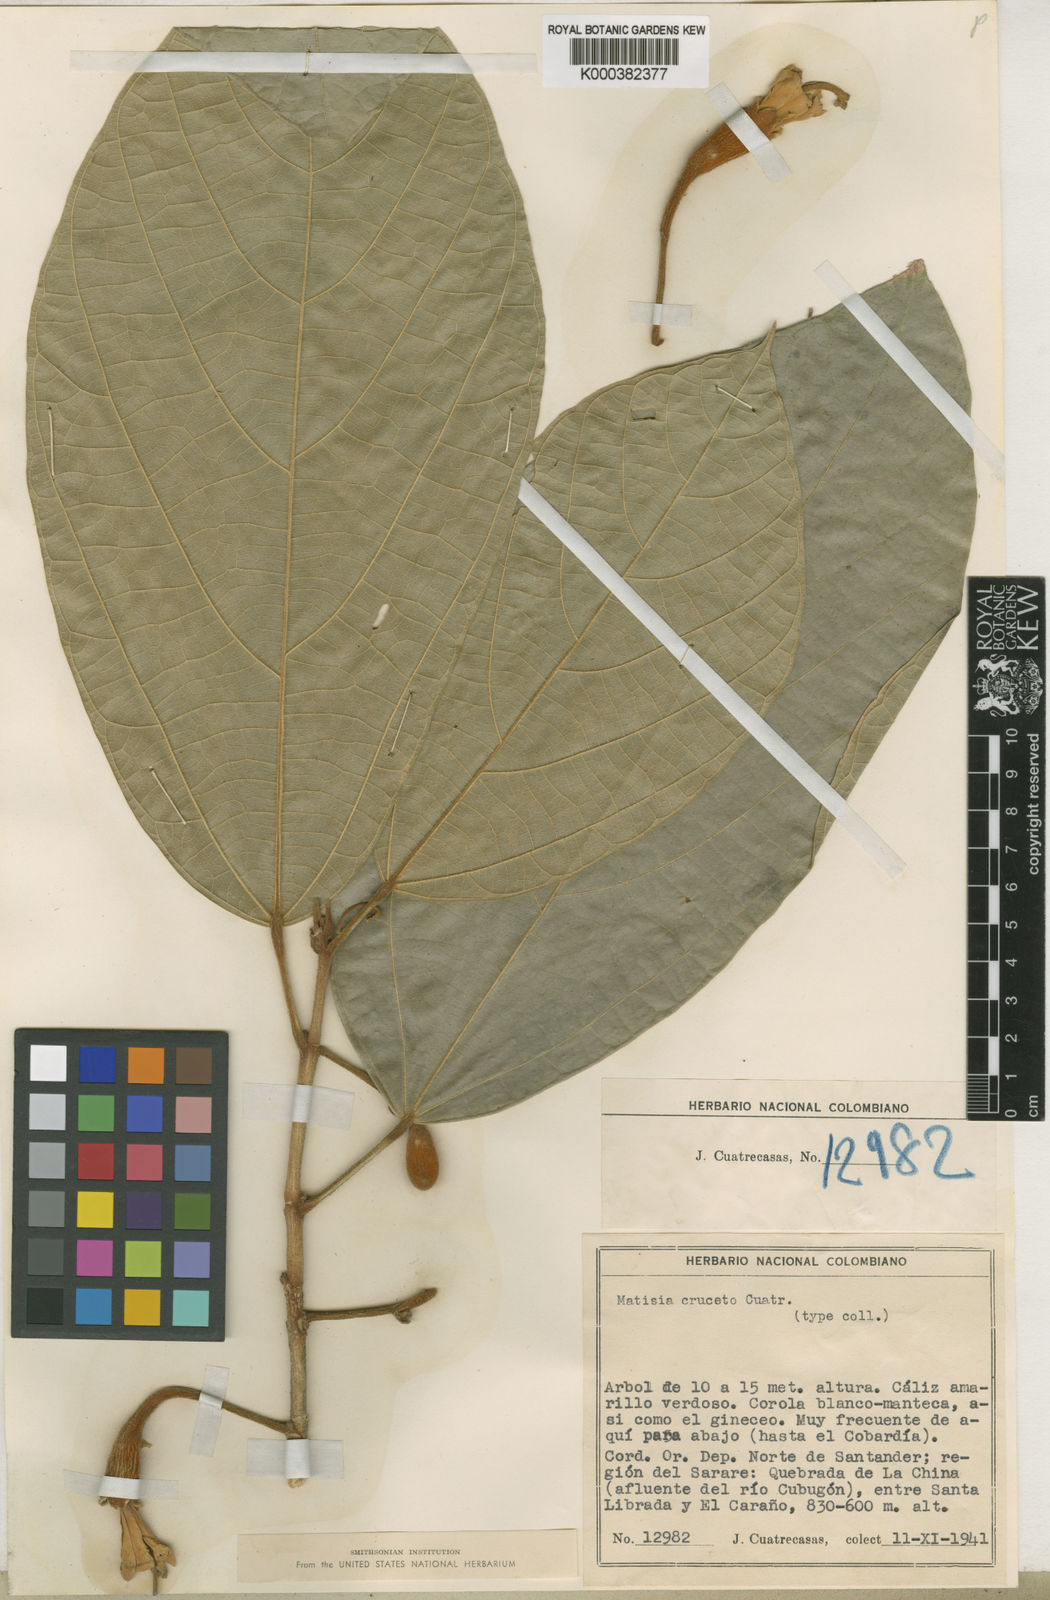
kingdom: Plantae
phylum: Tracheophyta
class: Magnoliopsida
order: Malvales
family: Malvaceae
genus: Matisia
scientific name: Matisia cruceto
